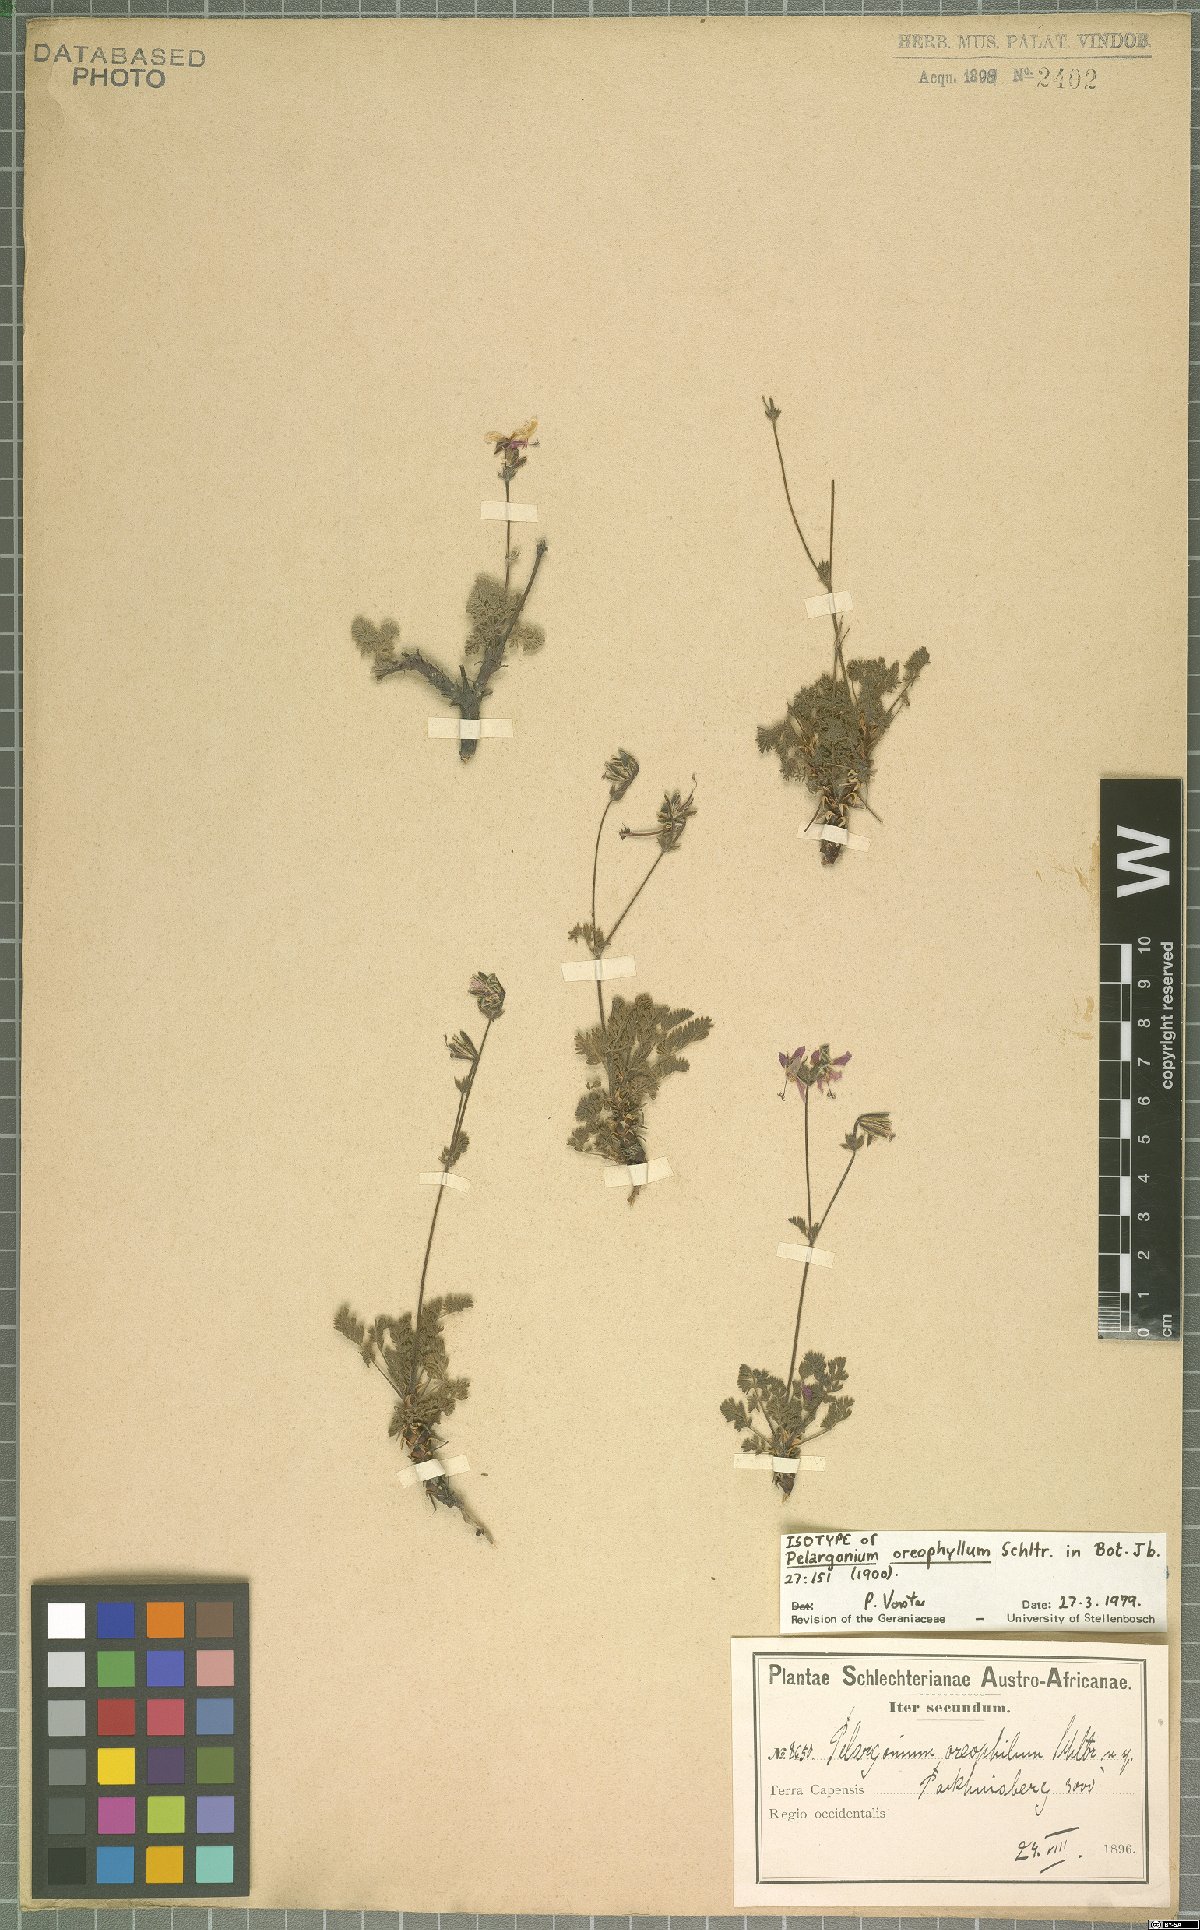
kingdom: Plantae
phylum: Tracheophyta
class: Magnoliopsida
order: Geraniales
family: Geraniaceae
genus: Pelargonium
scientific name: Pelargonium oreophilum
